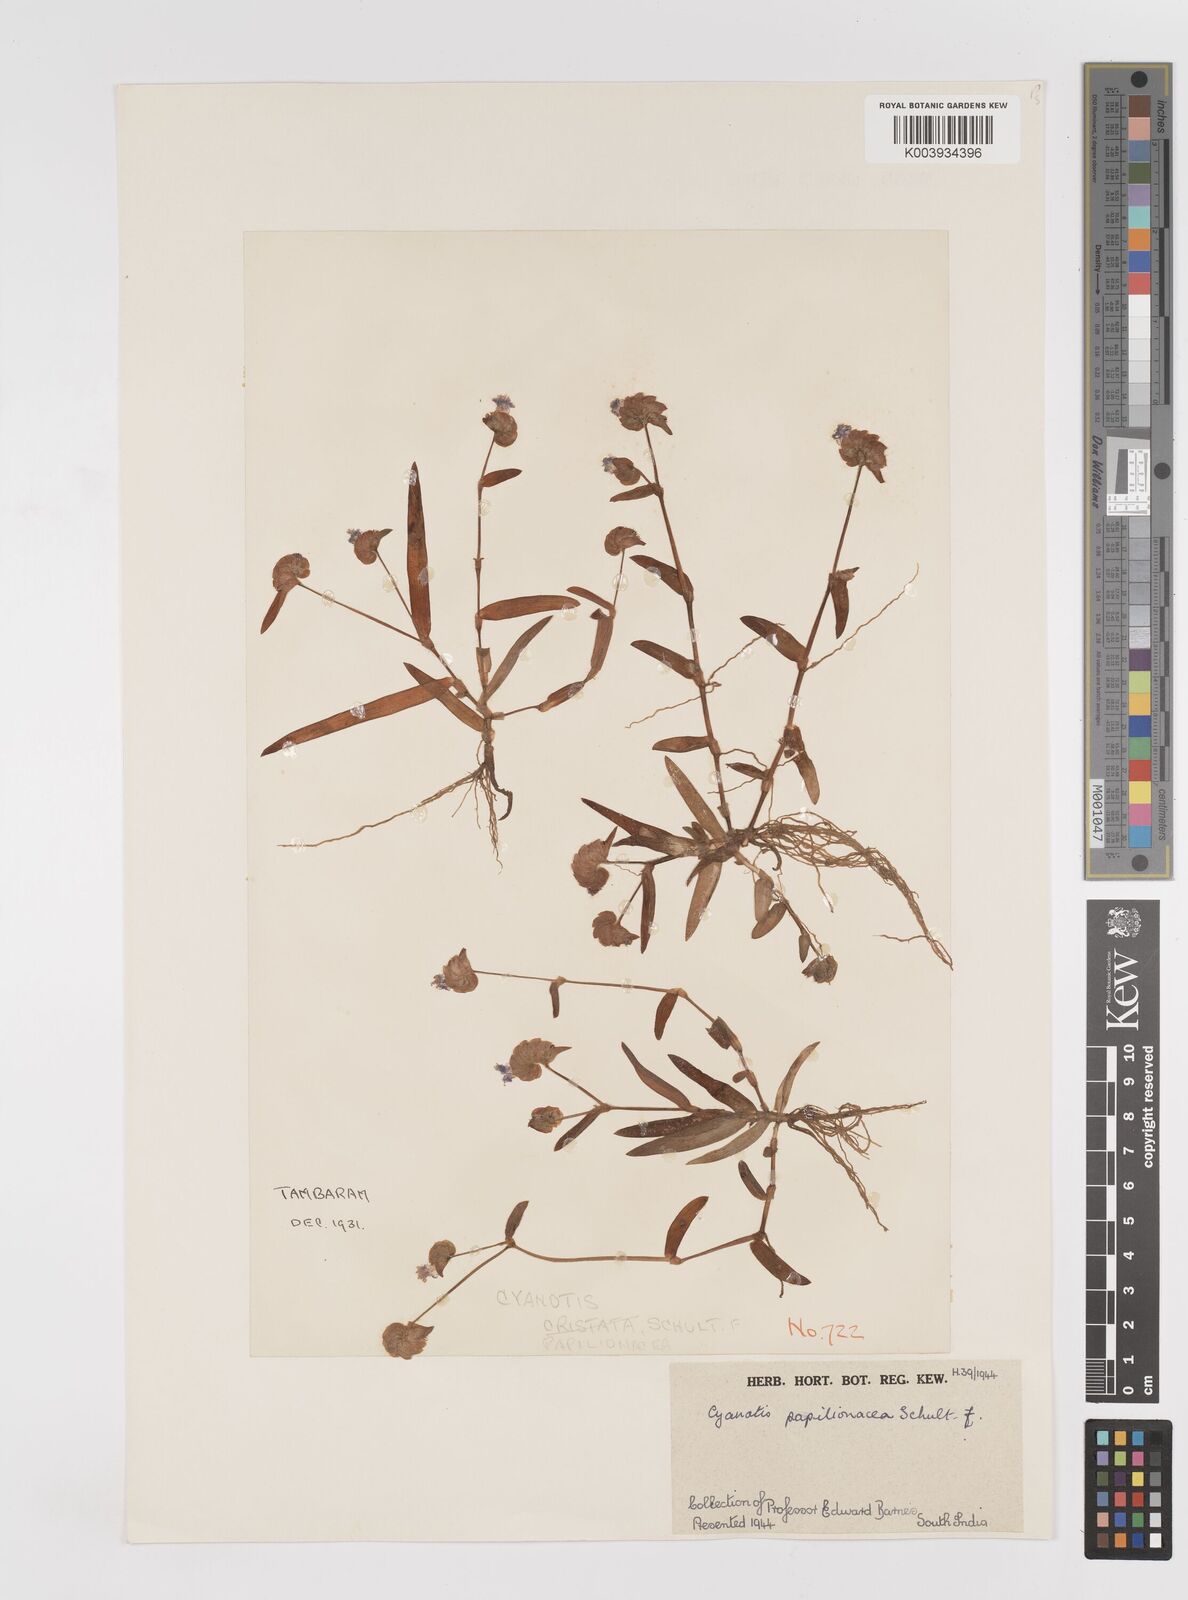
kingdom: Plantae
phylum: Tracheophyta
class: Liliopsida
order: Commelinales
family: Commelinaceae
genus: Cyanotis
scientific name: Cyanotis cristata
